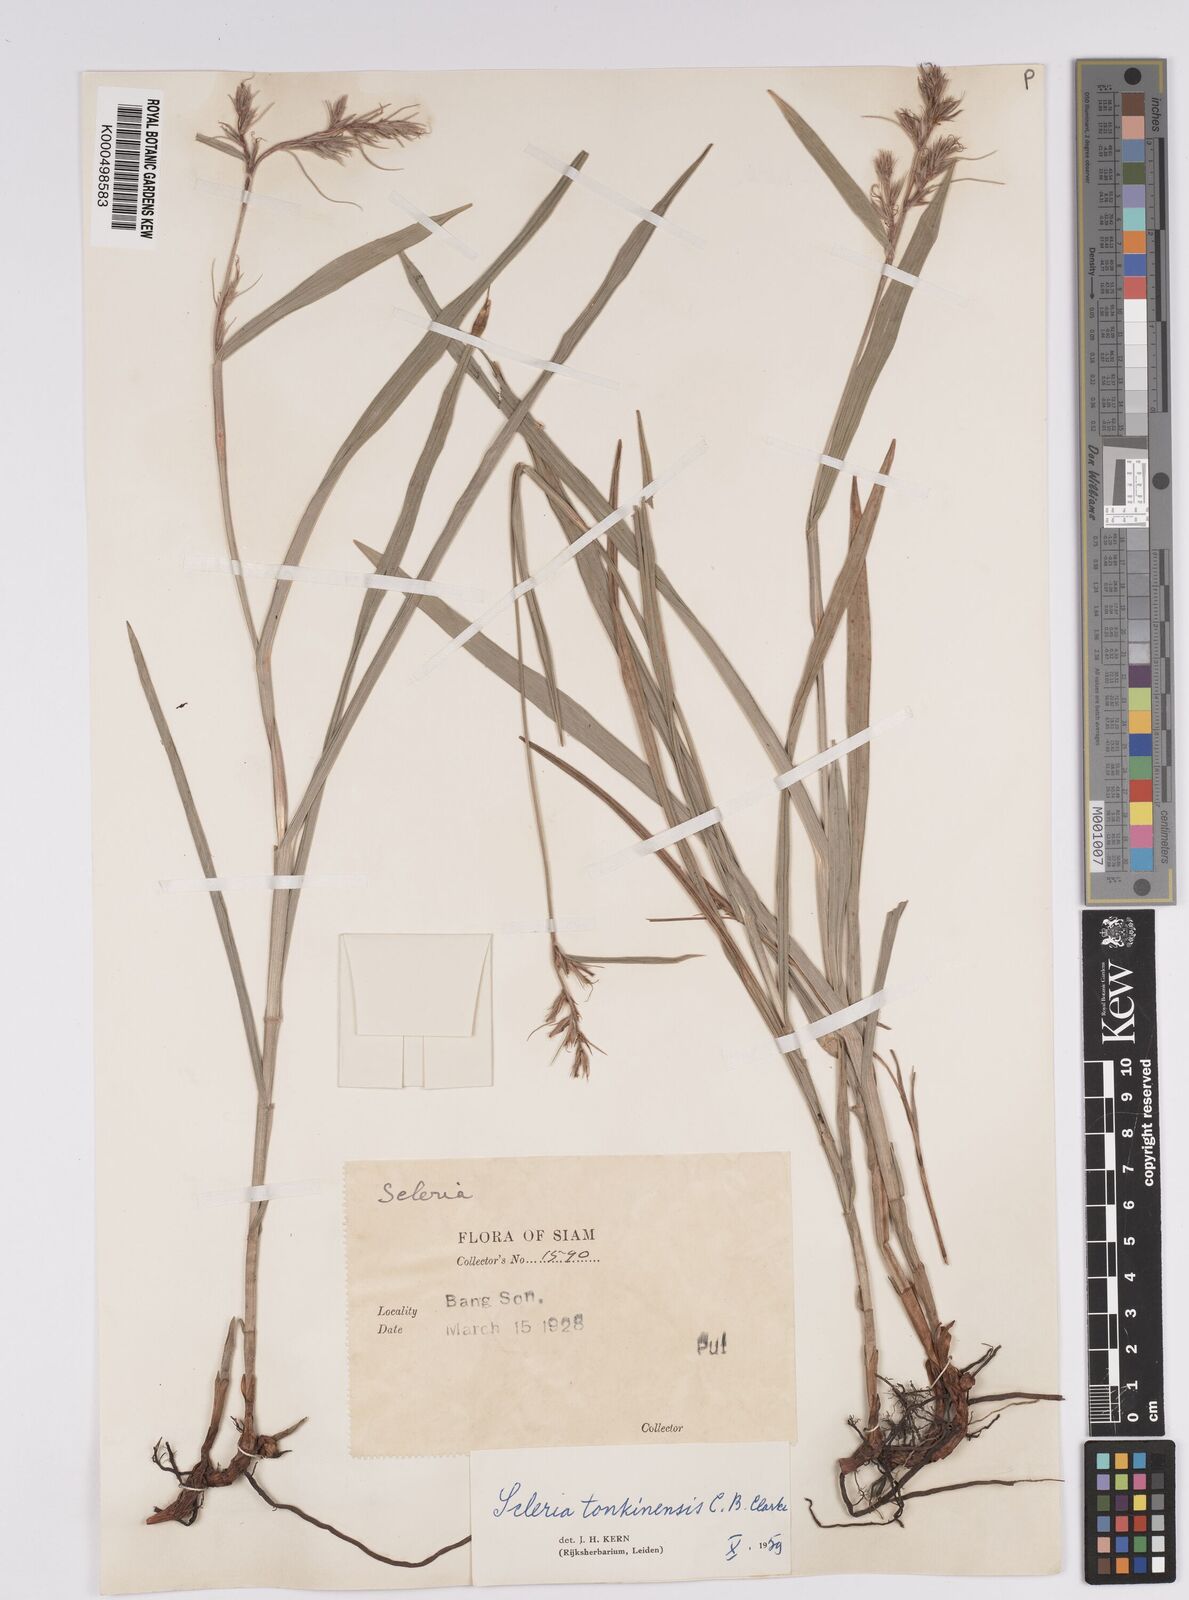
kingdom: Plantae
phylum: Tracheophyta
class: Liliopsida
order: Poales
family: Cyperaceae
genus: Scleria
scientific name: Scleria tonkinensis
